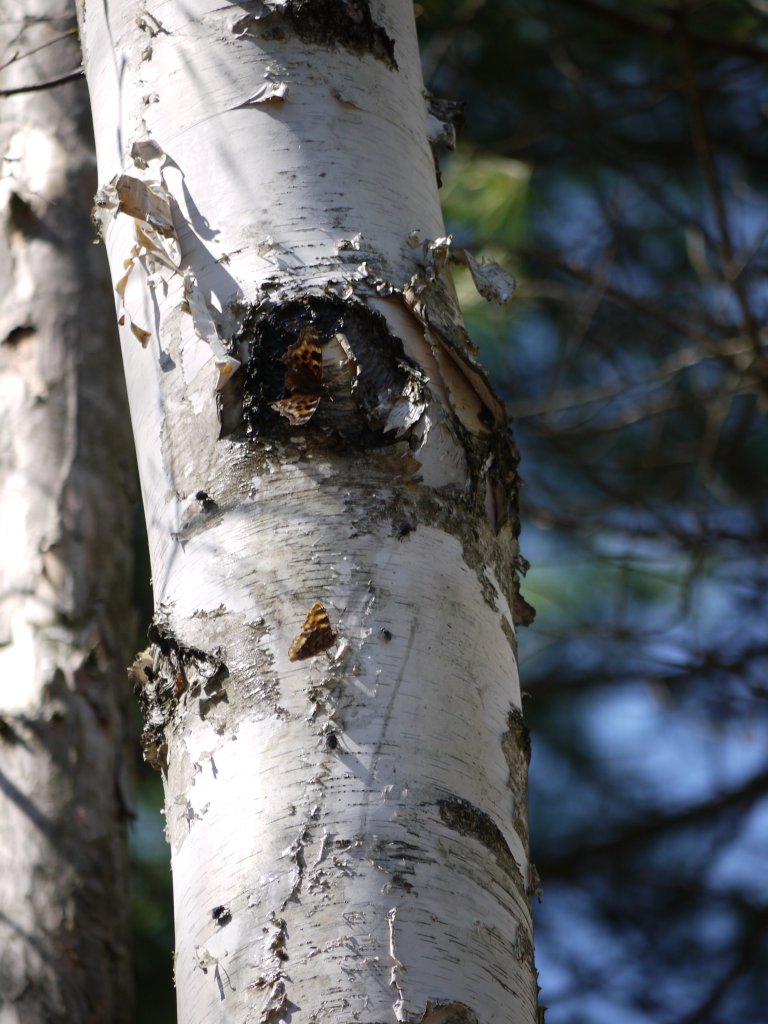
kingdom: Animalia
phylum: Arthropoda
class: Insecta
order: Lepidoptera
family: Nymphalidae
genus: Polygonia
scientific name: Polygonia vaualbum
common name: Compton Tortoiseshell
